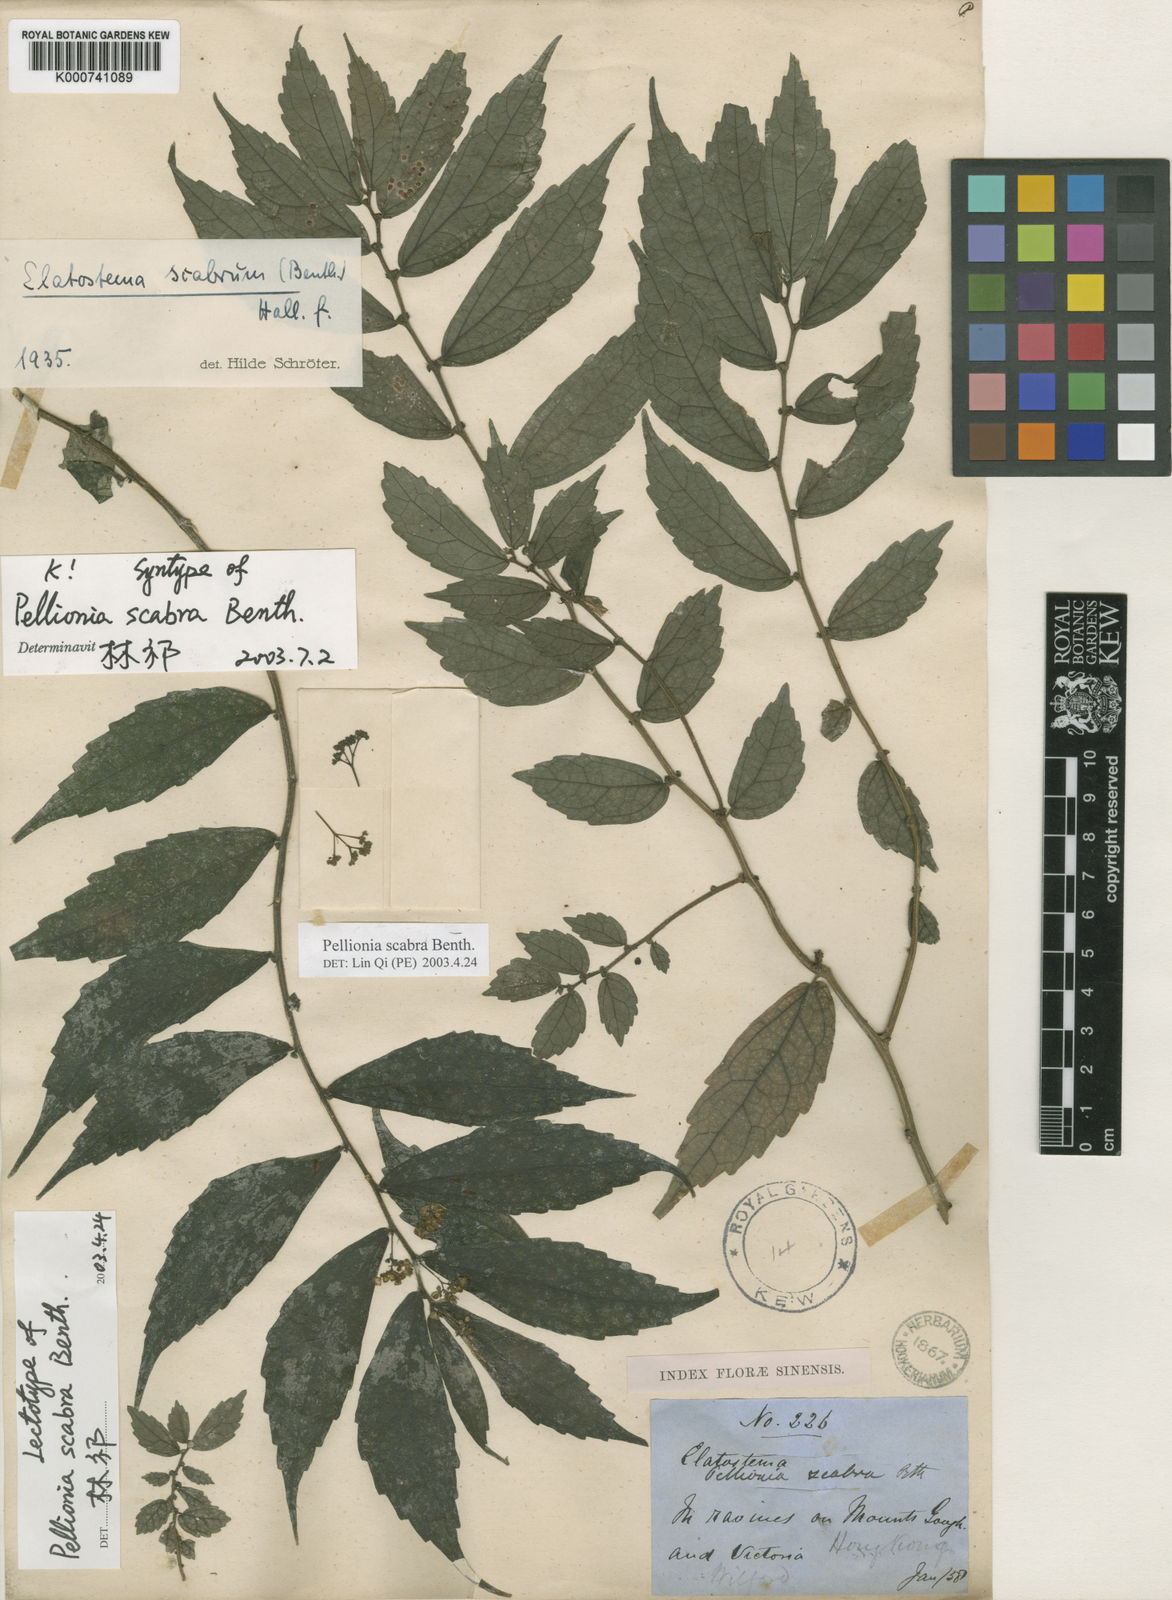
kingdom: Plantae
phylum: Tracheophyta
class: Magnoliopsida
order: Rosales
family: Urticaceae
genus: Elatostema
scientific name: Elatostema scabrum
